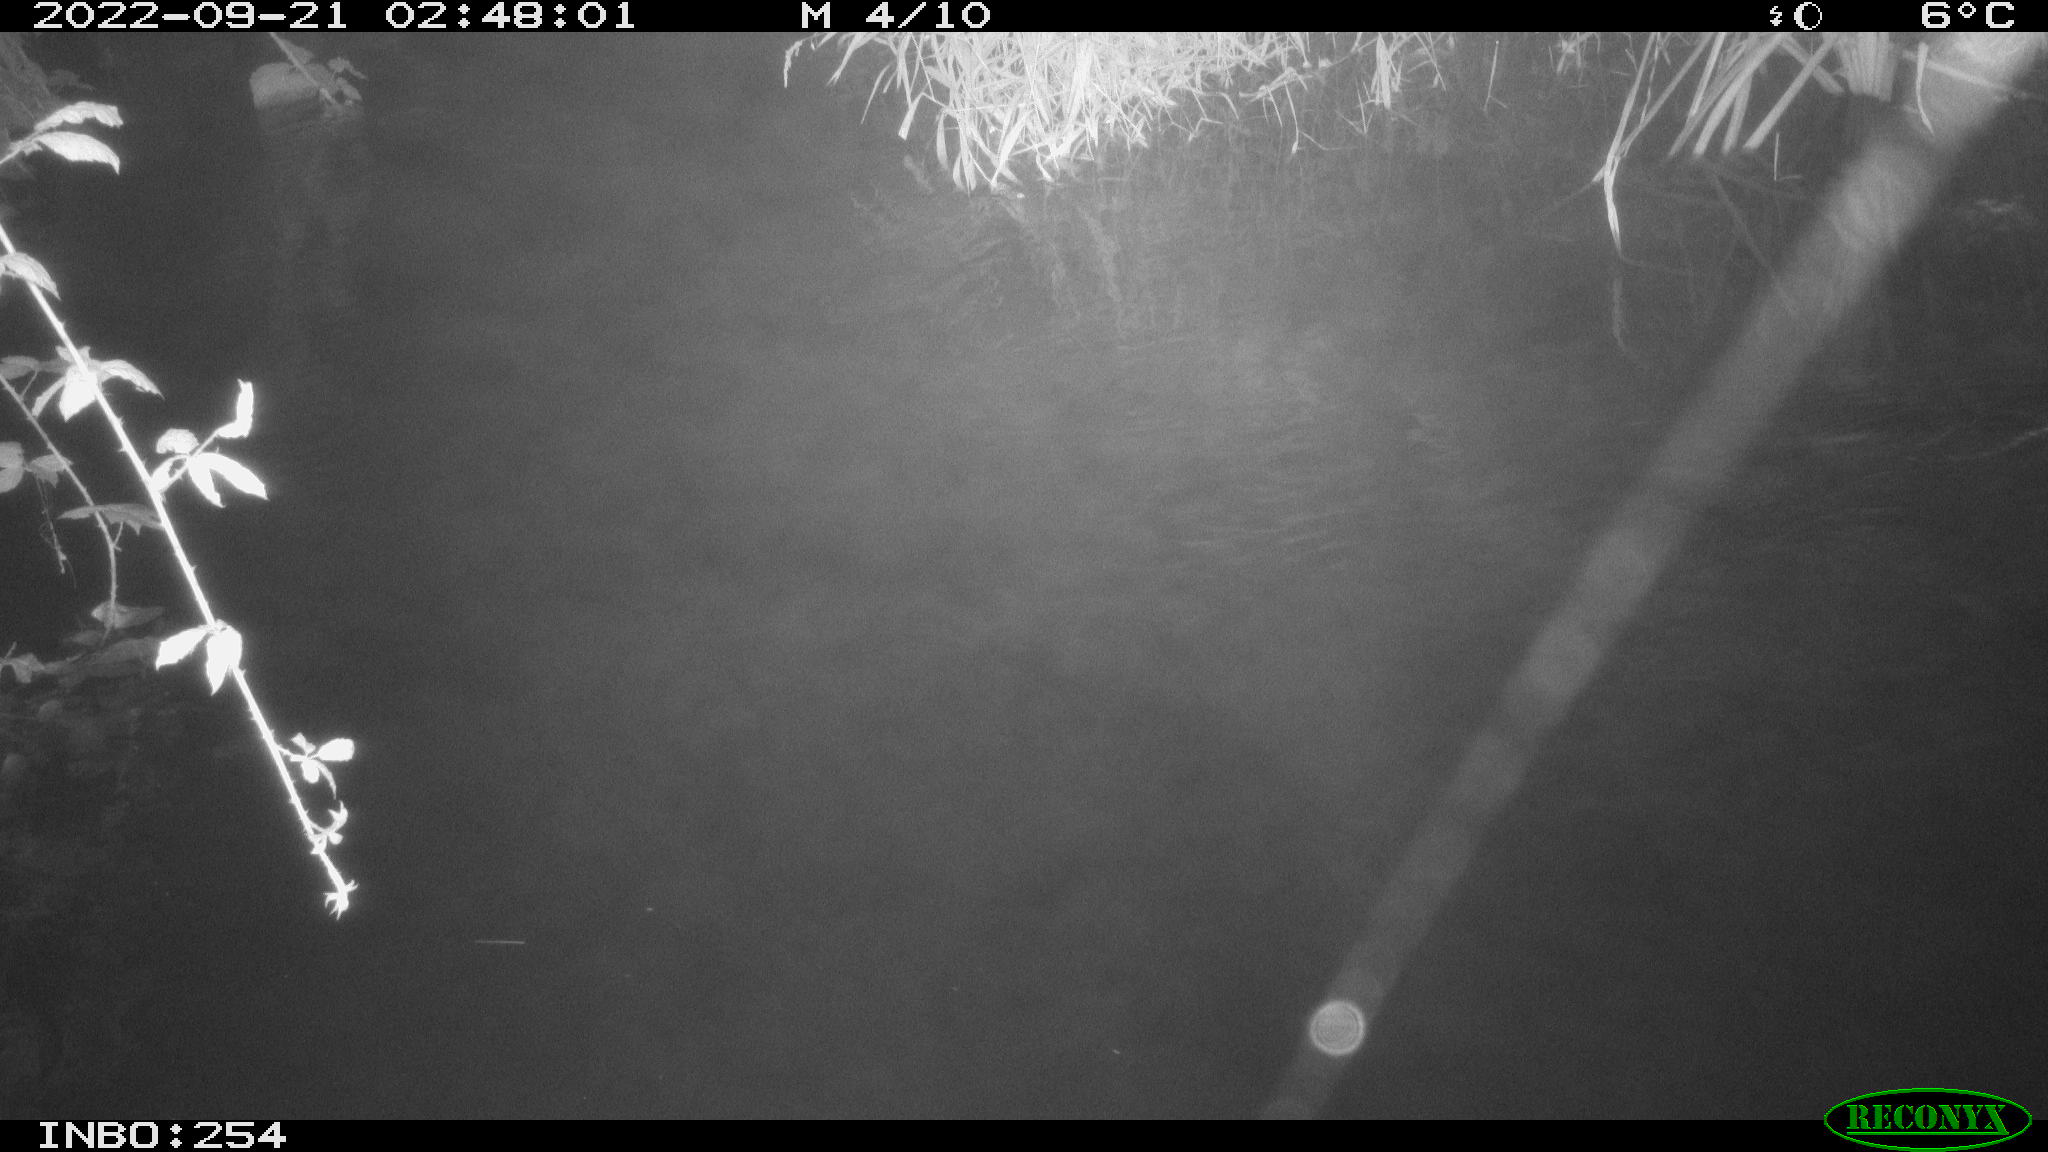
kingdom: Animalia
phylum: Chordata
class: Mammalia
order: Rodentia
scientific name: Rodentia
